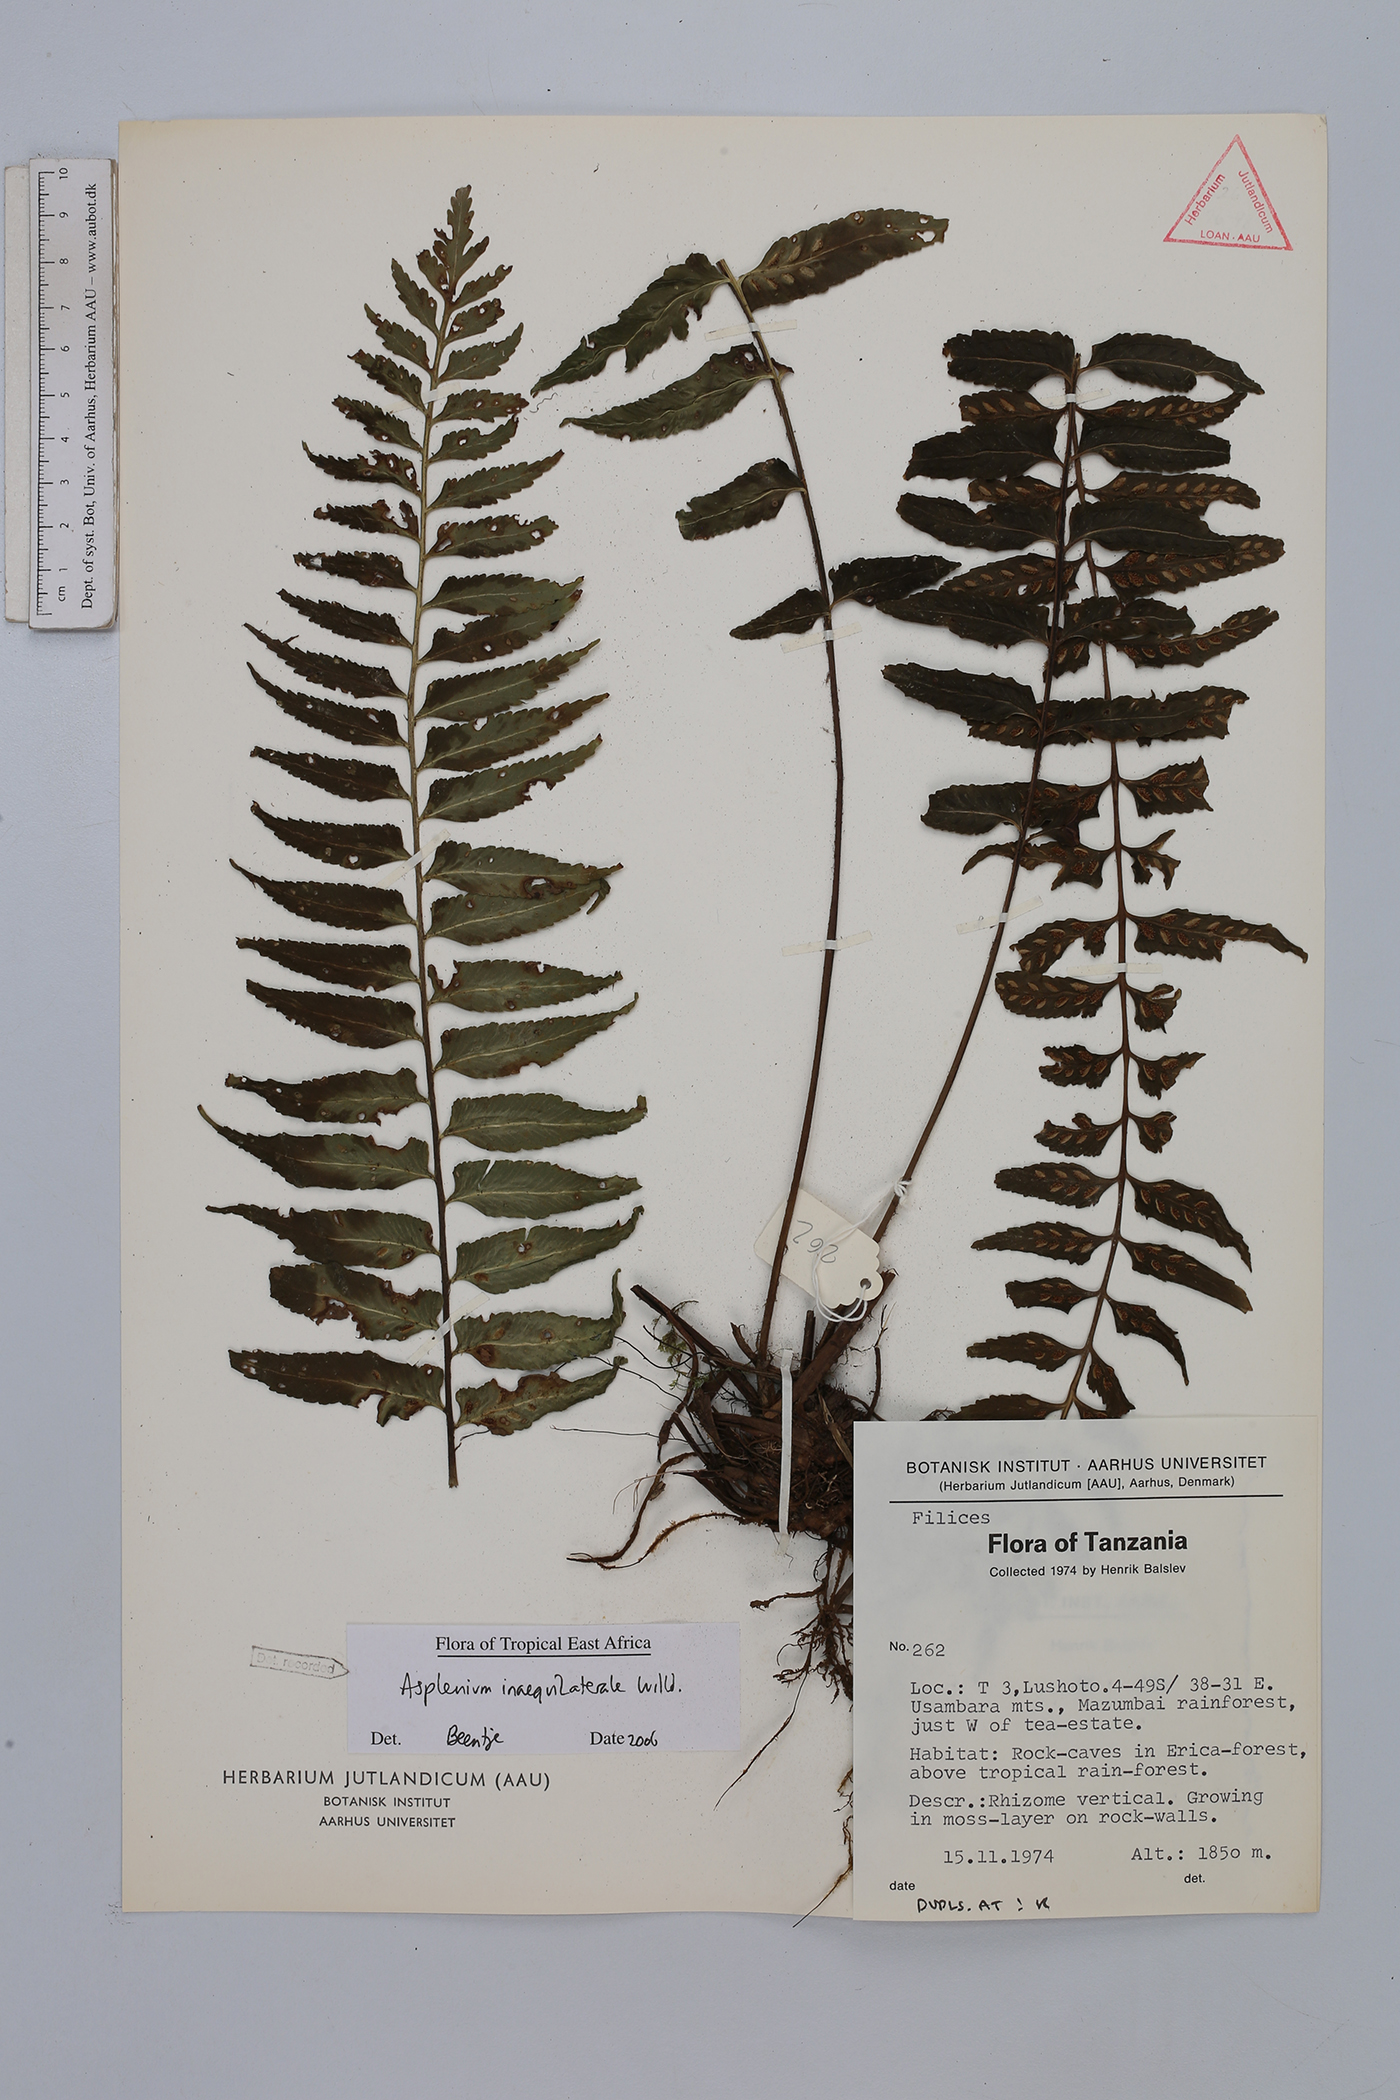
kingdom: Plantae
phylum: Tracheophyta
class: Polypodiopsida
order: Polypodiales
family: Aspleniaceae
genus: Asplenium
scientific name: Asplenium inaequilaterale
